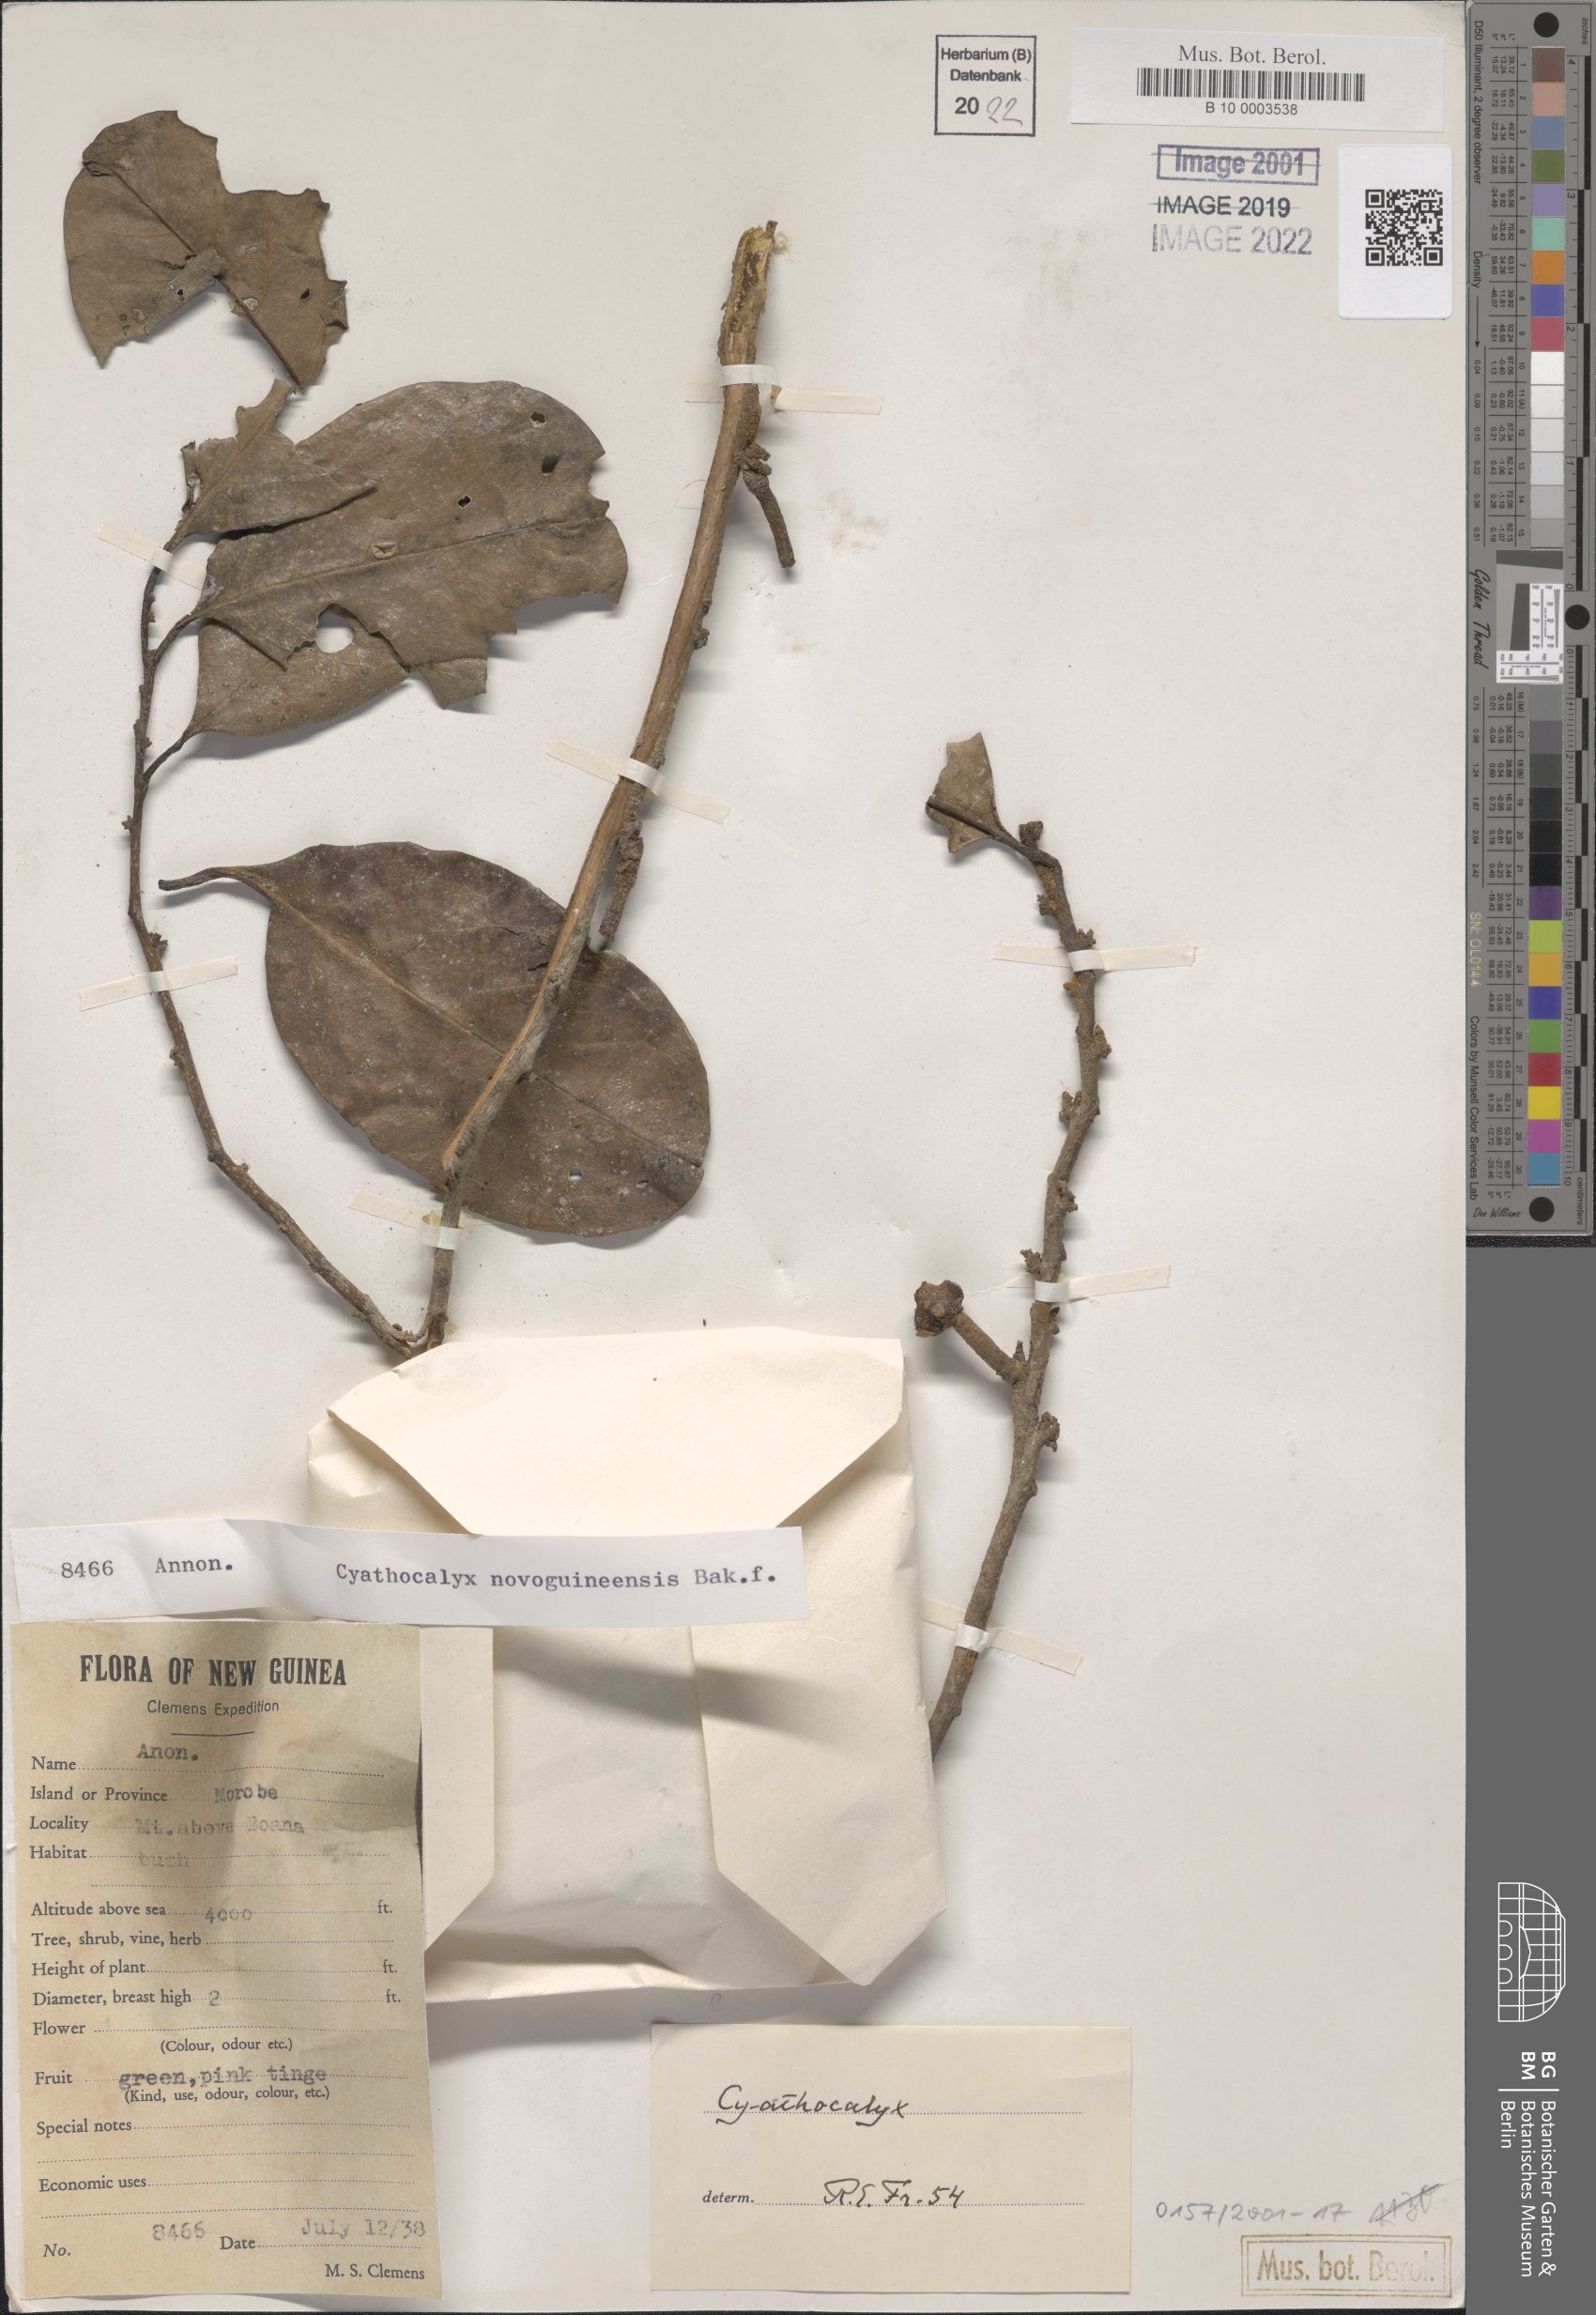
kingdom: Plantae
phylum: Tracheophyta
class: Magnoliopsida
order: Magnoliales
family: Annonaceae
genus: Drepananthus
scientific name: Drepananthus petiolatus
